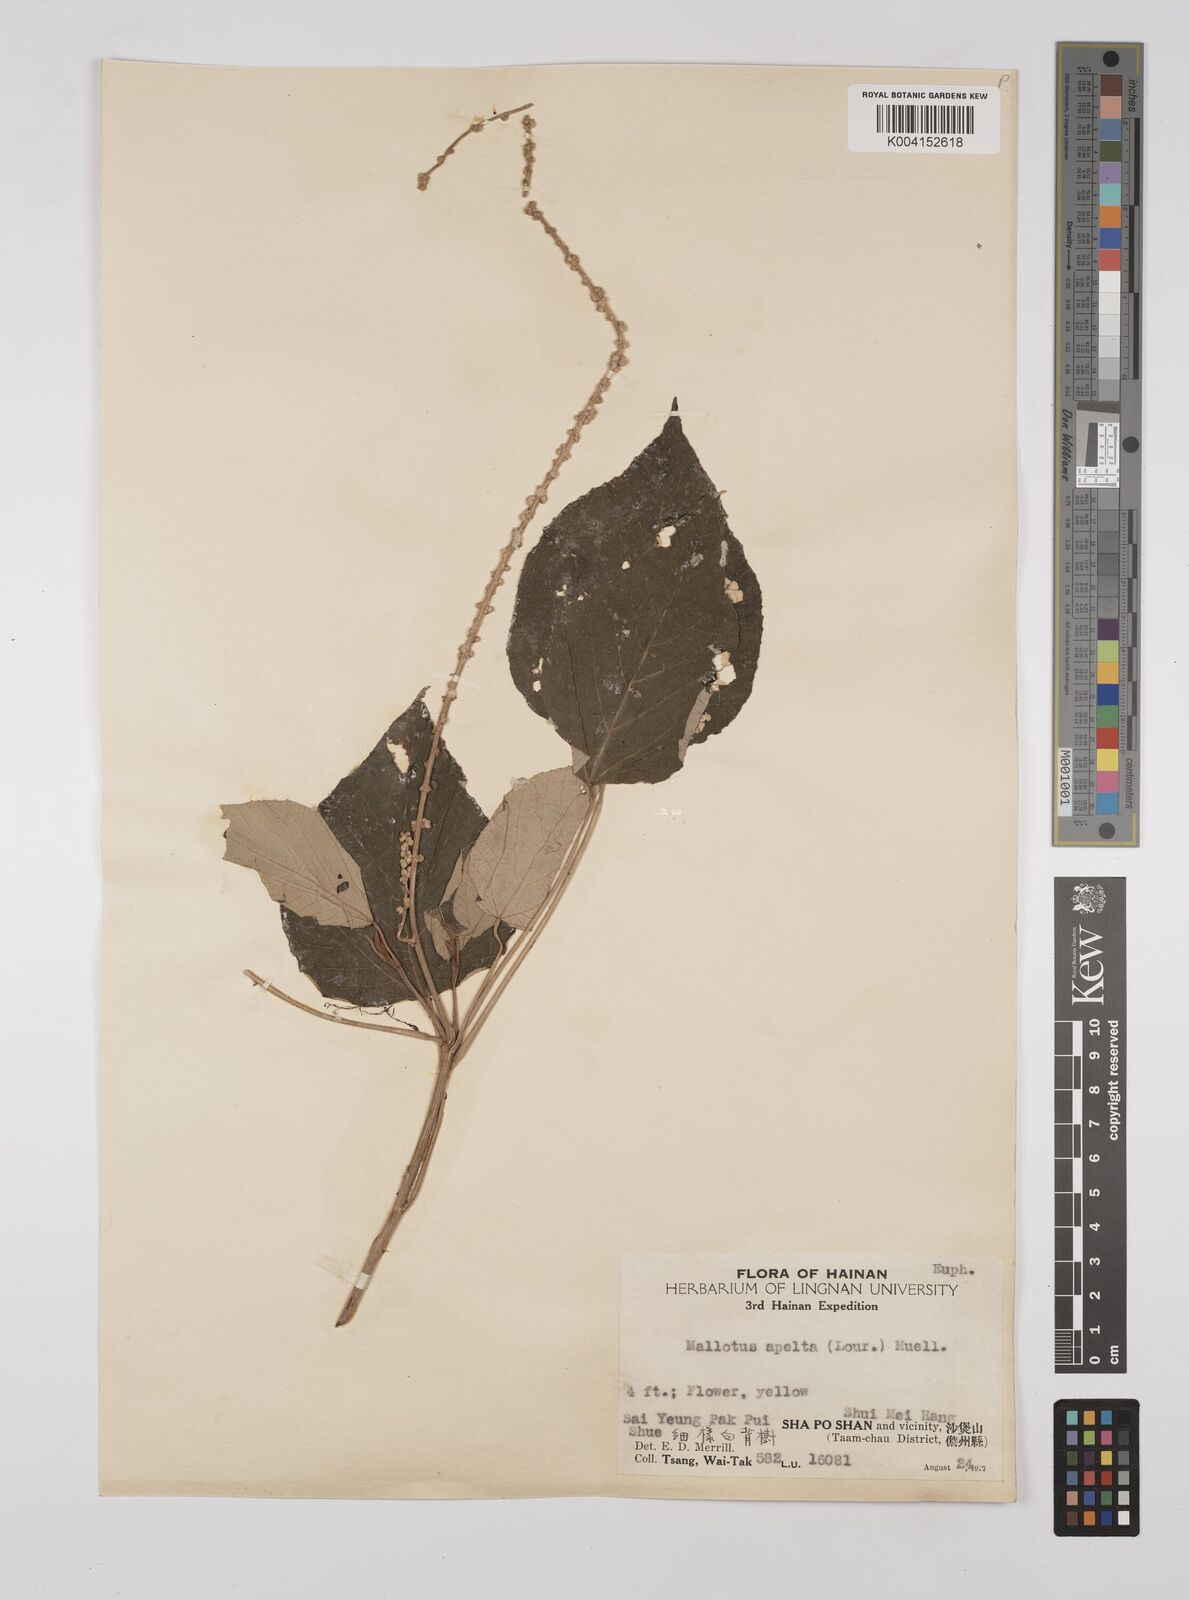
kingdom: Plantae
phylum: Tracheophyta
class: Magnoliopsida
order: Malpighiales
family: Euphorbiaceae
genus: Mallotus
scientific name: Mallotus apelta
